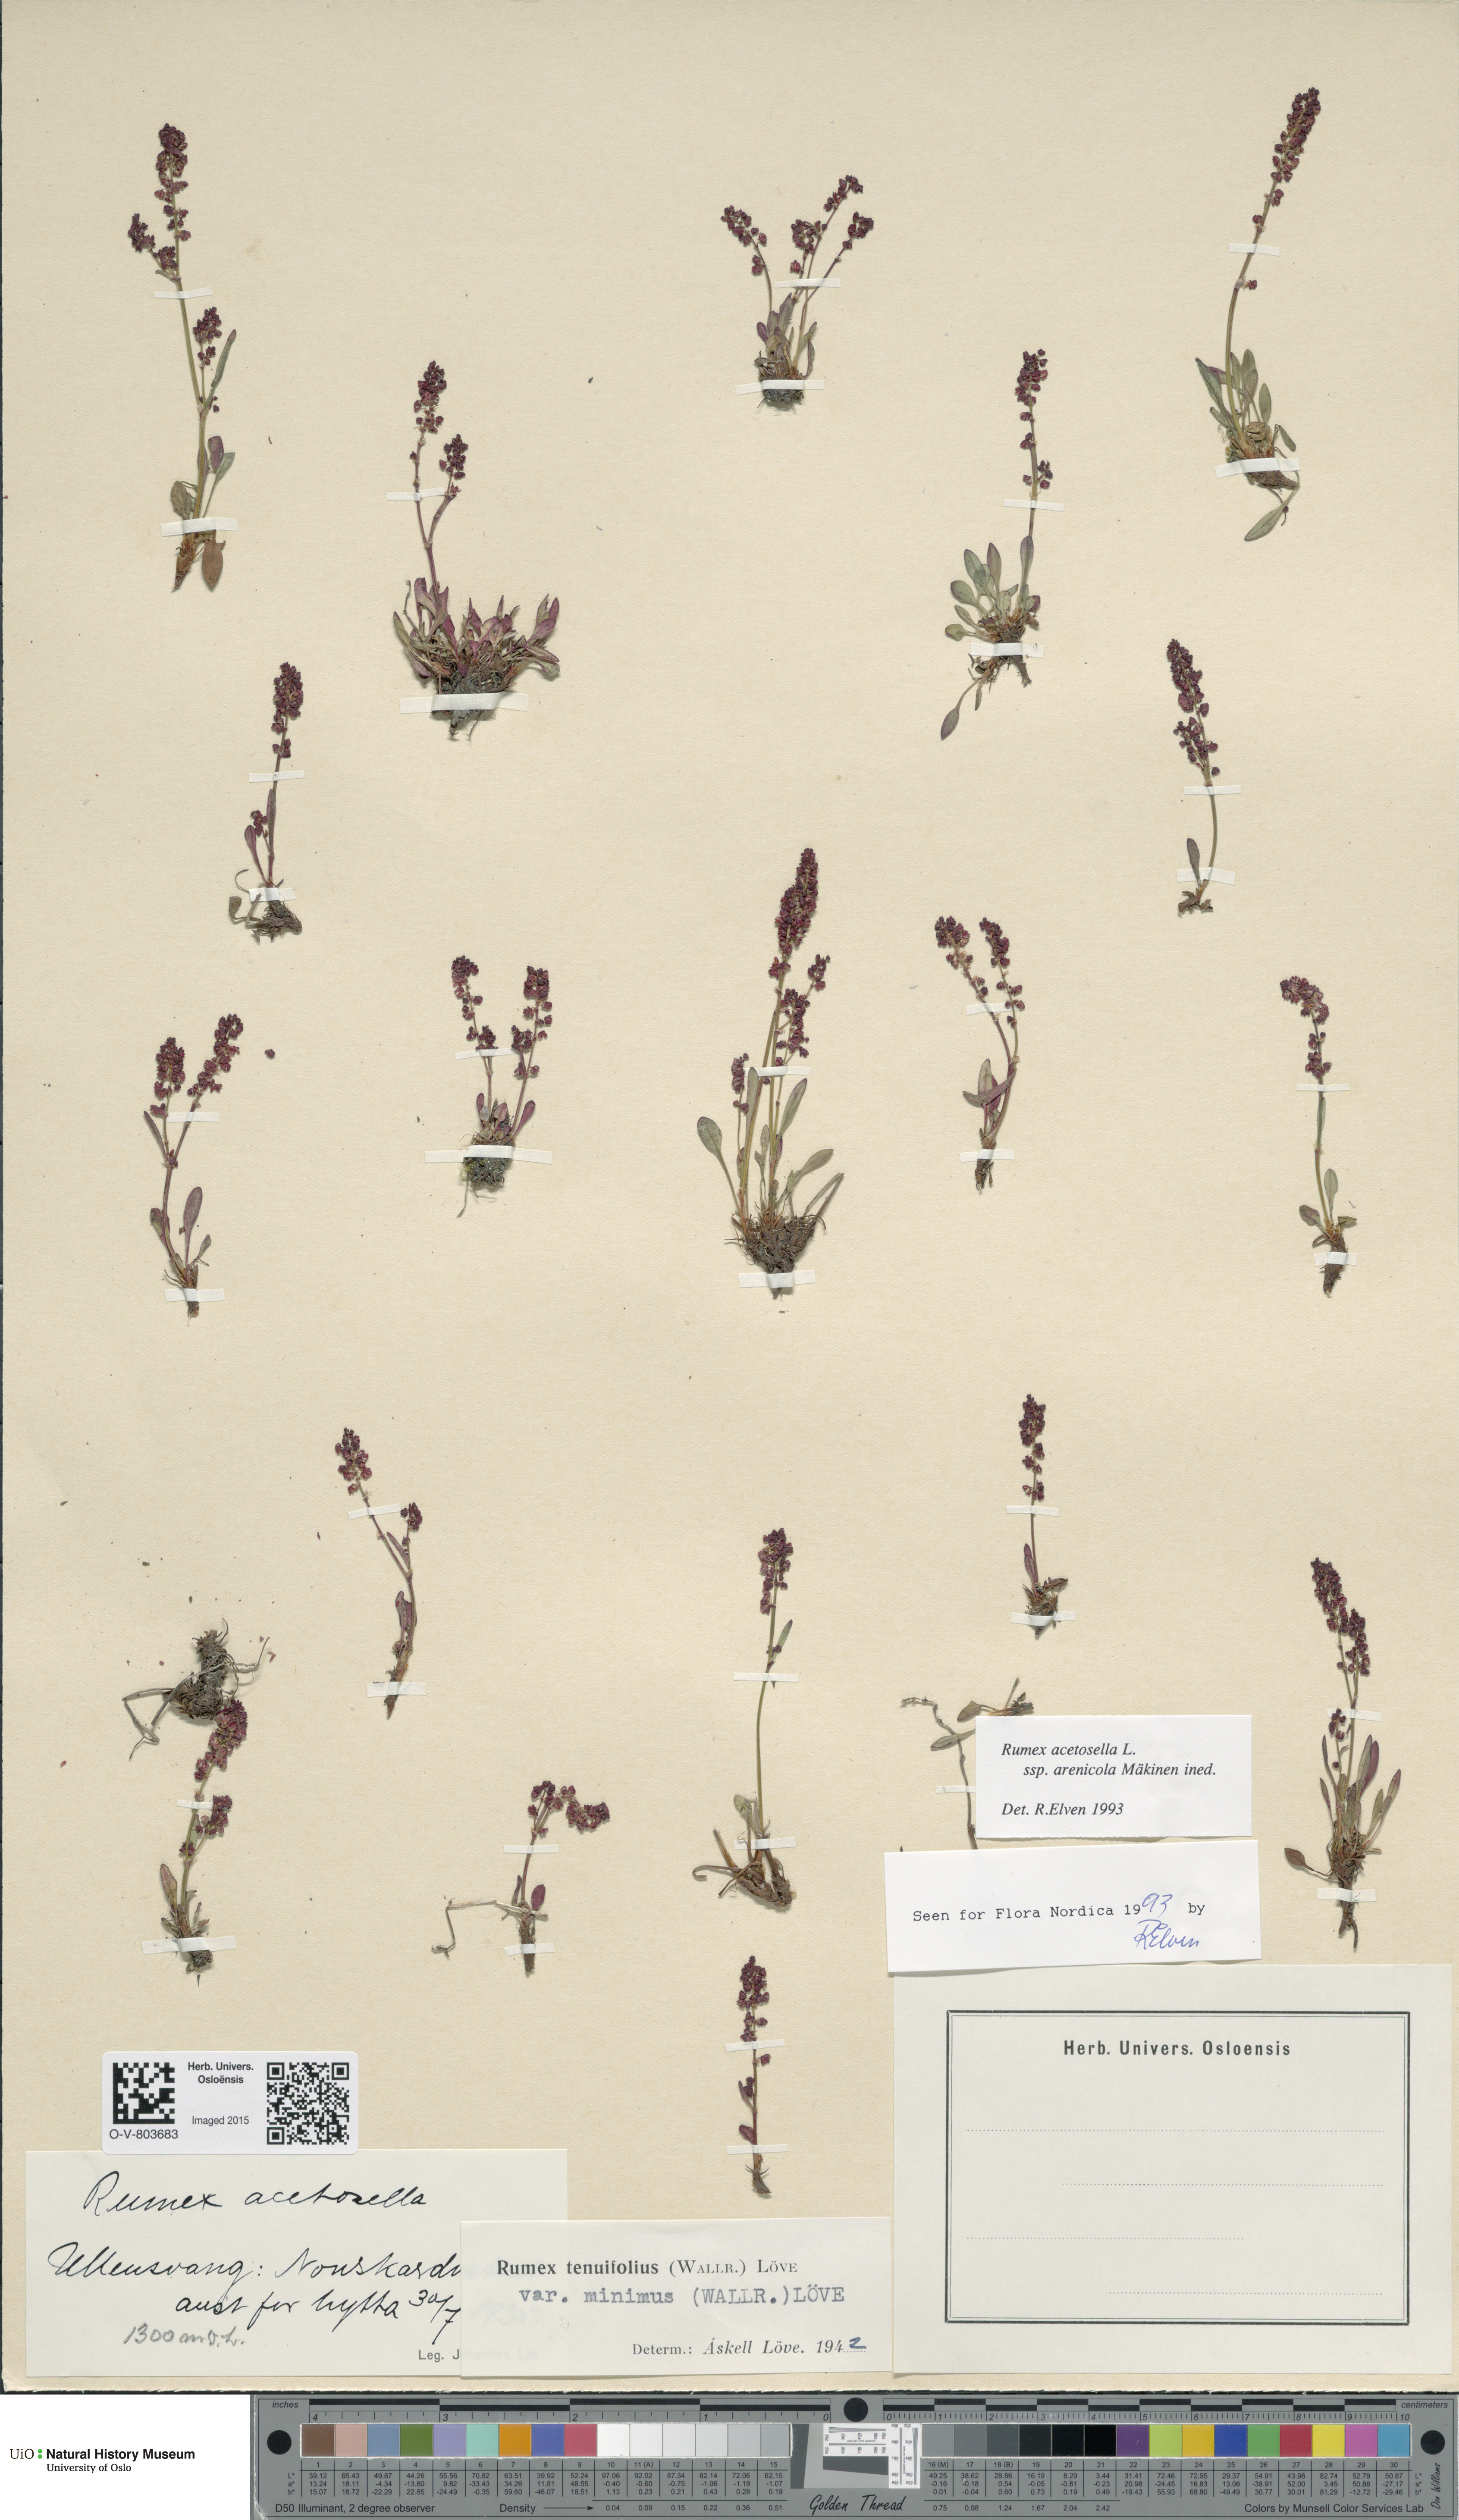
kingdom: Plantae
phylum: Tracheophyta
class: Magnoliopsida
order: Caryophyllales
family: Polygonaceae
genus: Rumex
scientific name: Rumex acetosella
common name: Common sheep sorrel
